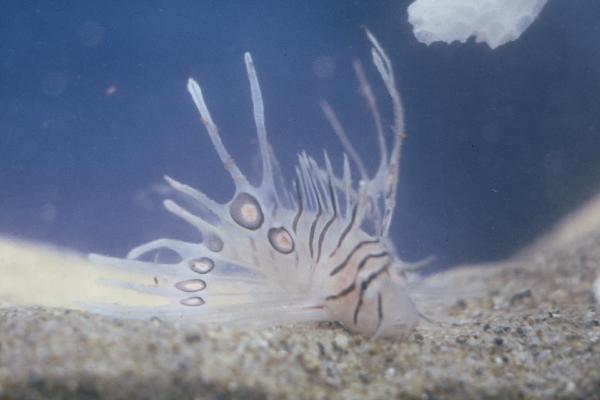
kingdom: Animalia
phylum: Chordata
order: Scorpaeniformes
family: Scorpaenidae
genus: Pterois
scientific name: Pterois miles
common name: Devil firefish
